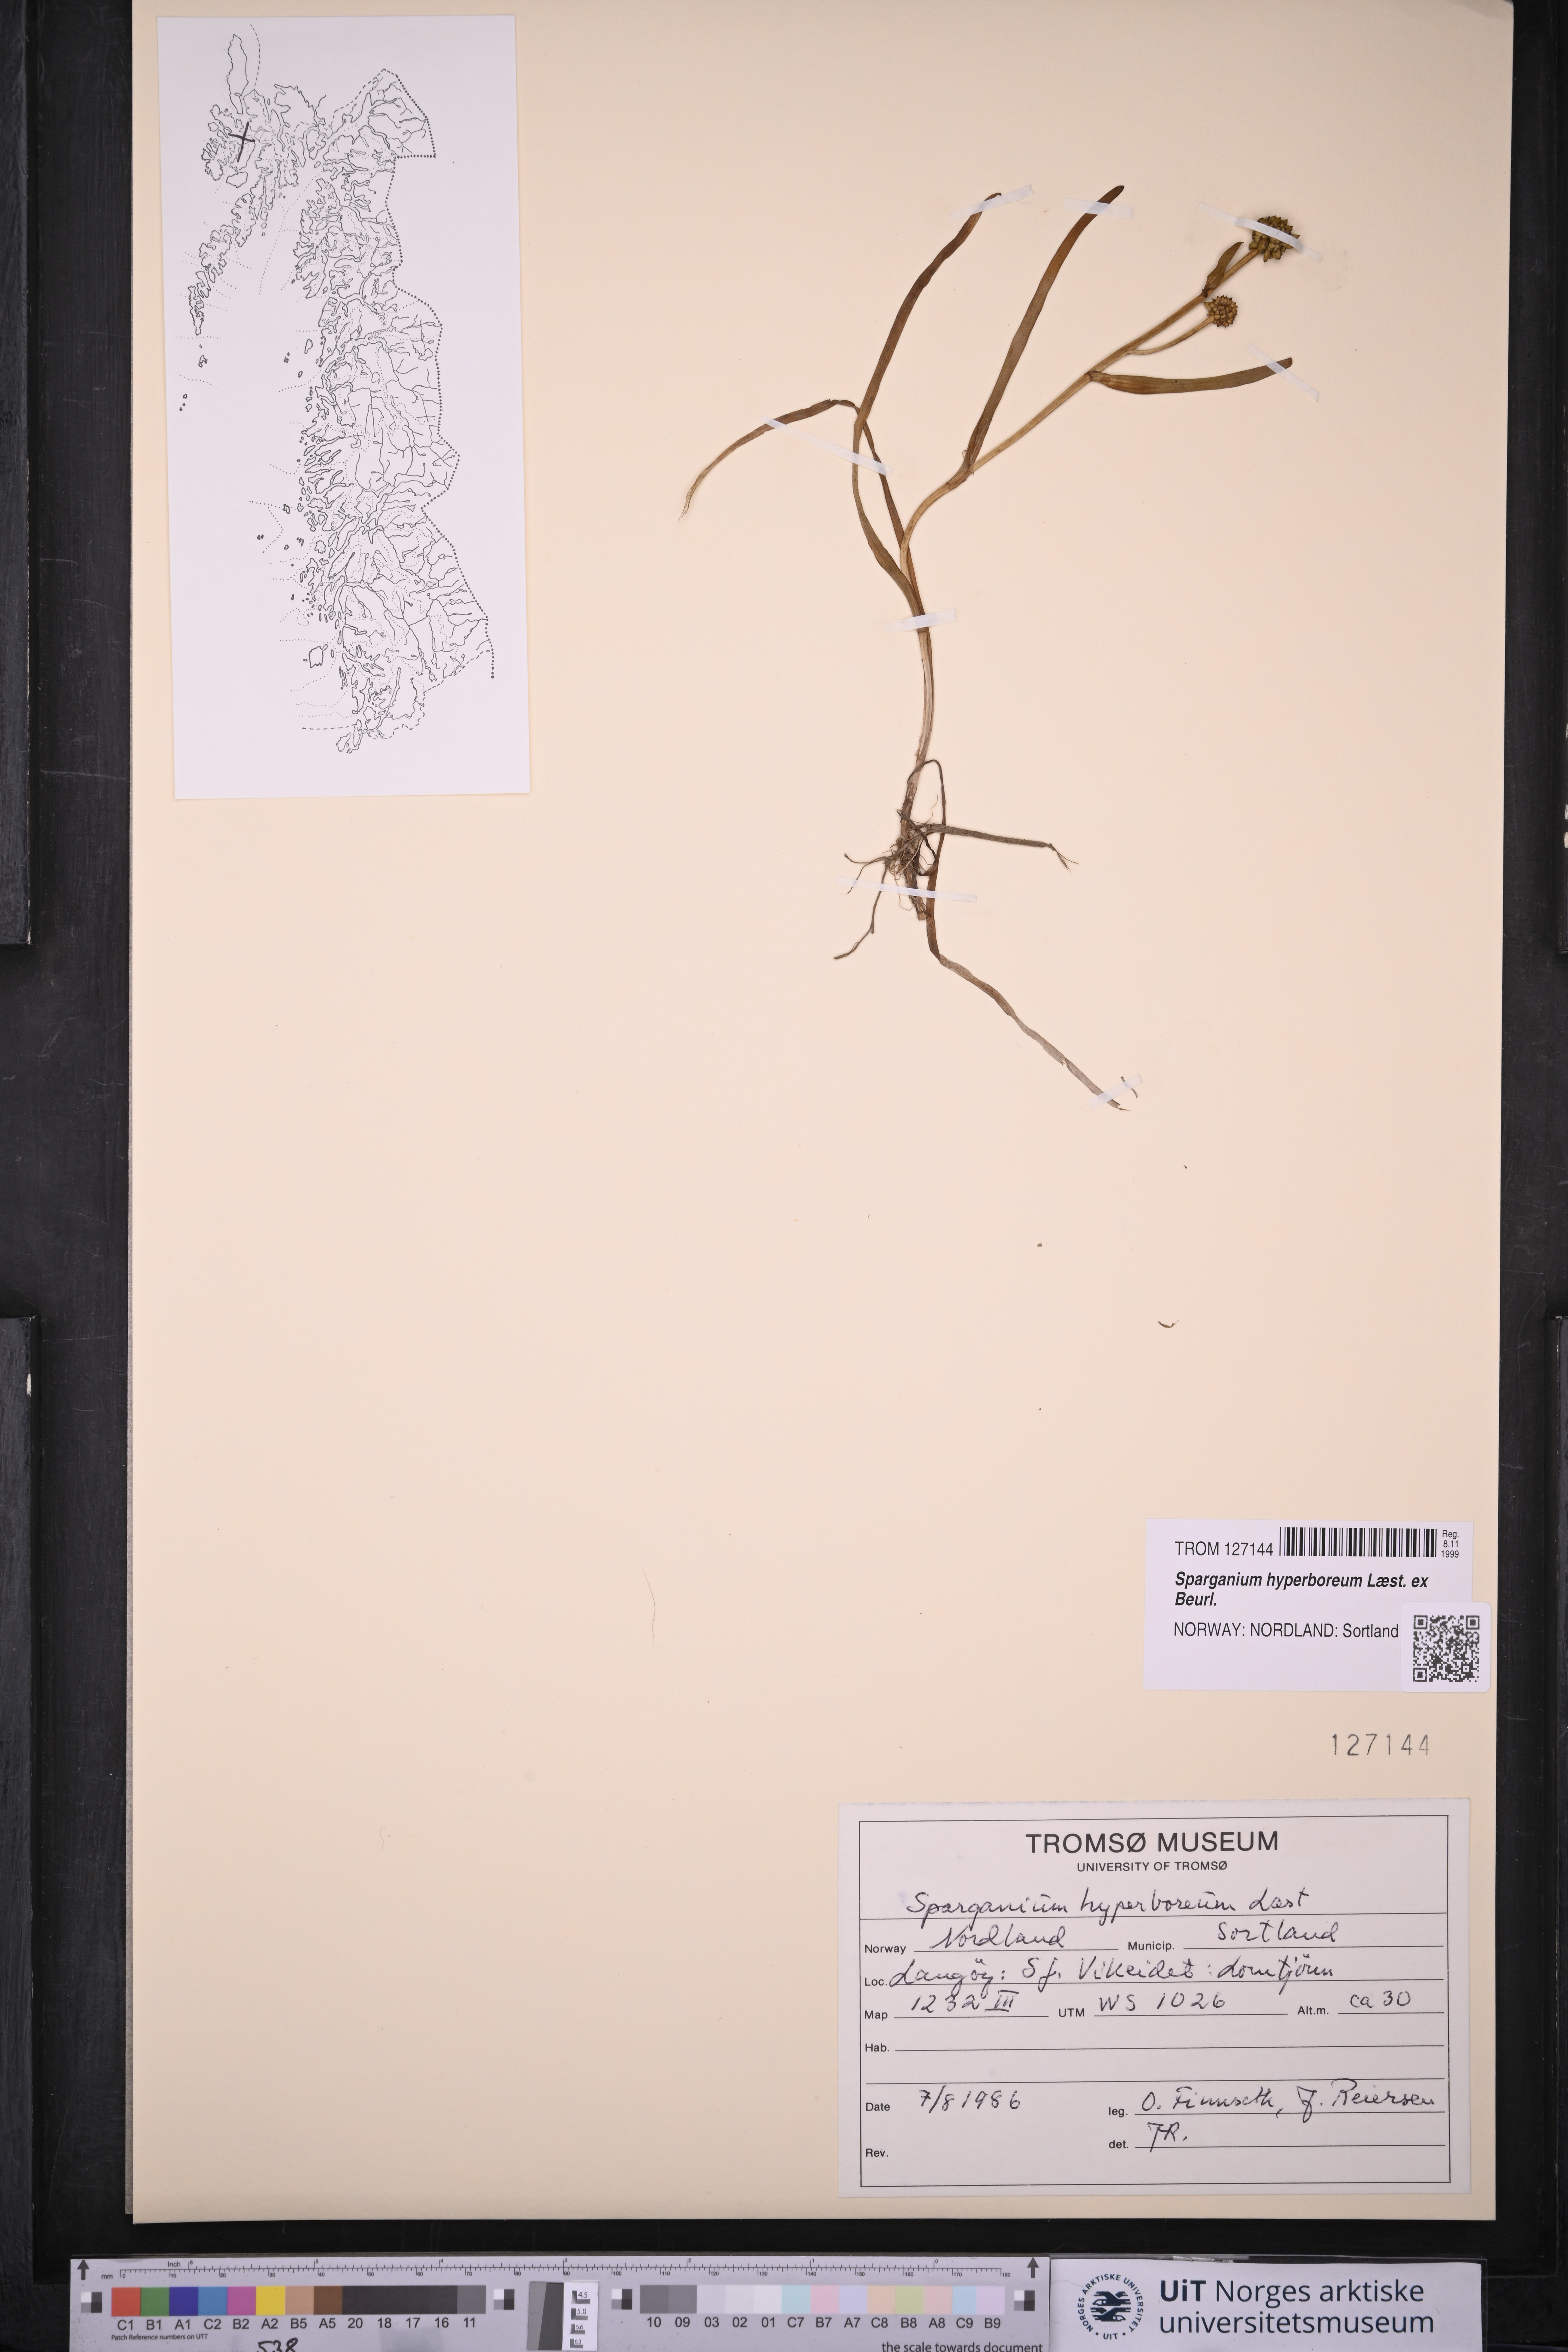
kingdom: Plantae
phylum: Tracheophyta
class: Liliopsida
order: Poales
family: Typhaceae
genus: Sparganium
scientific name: Sparganium hyperboreum
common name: Arctic burreed
